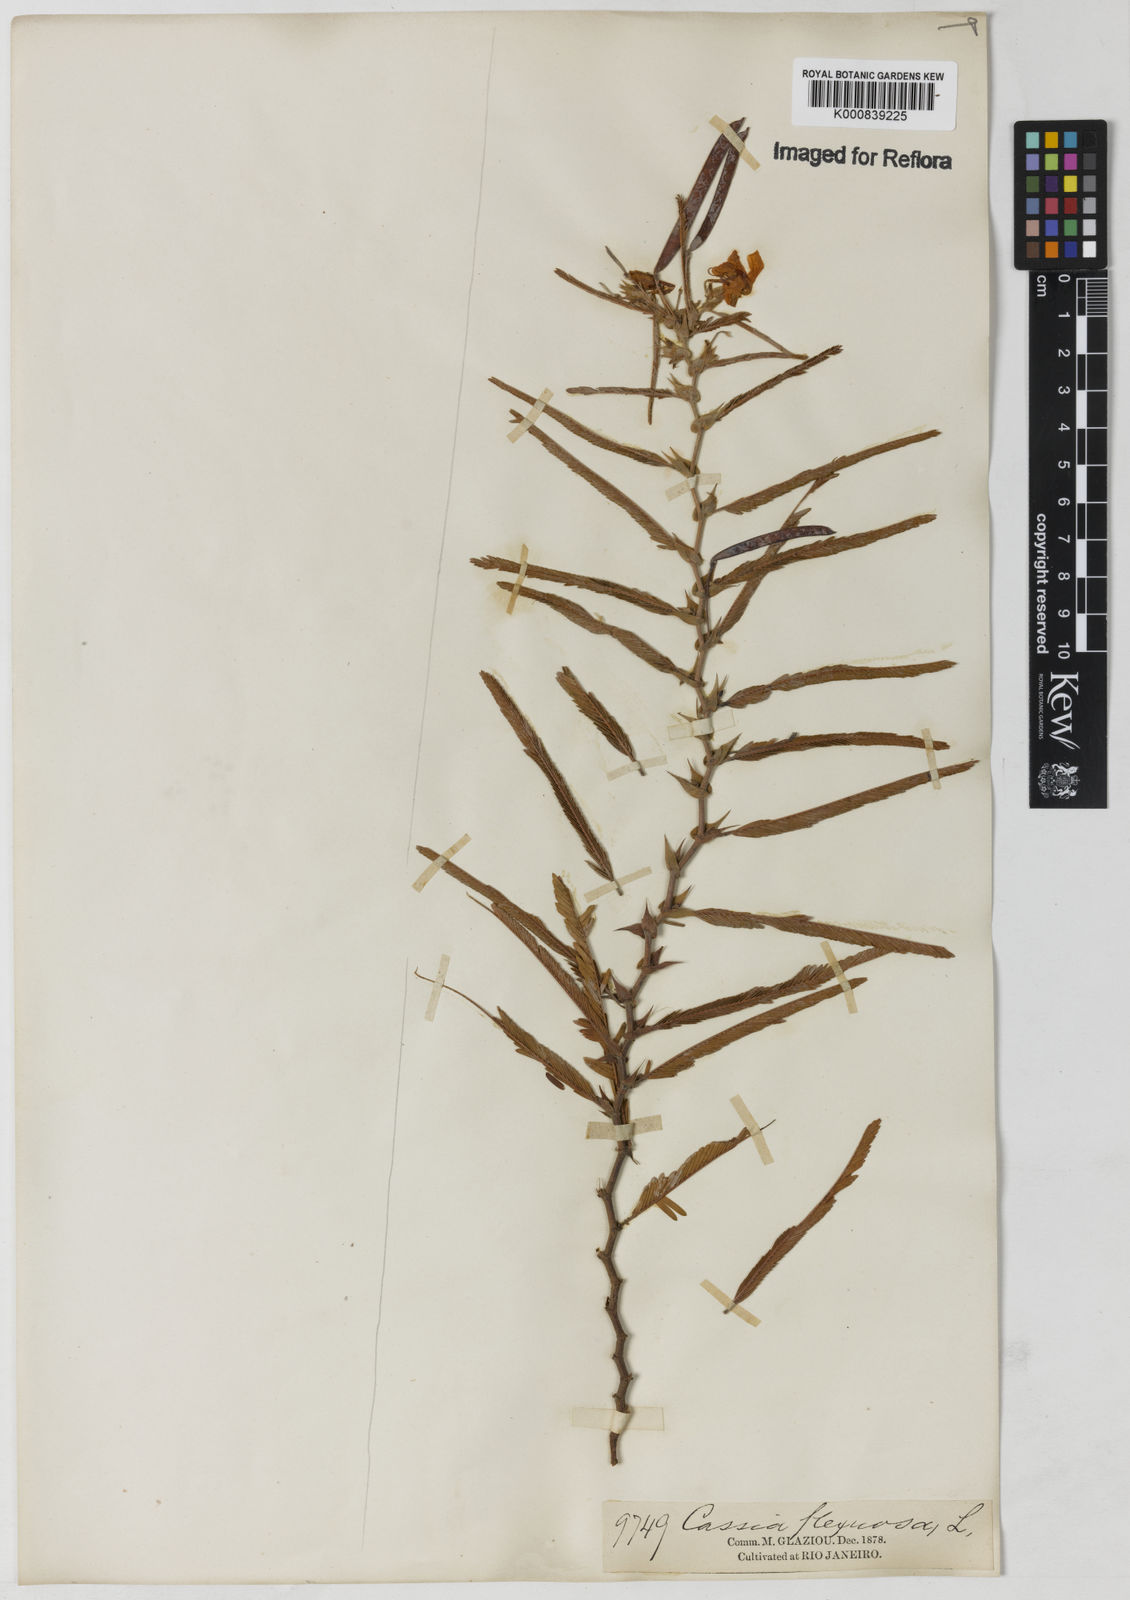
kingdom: Plantae
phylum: Tracheophyta
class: Magnoliopsida
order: Fabales
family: Fabaceae
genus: Chamaecrista
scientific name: Chamaecrista flexuosa
